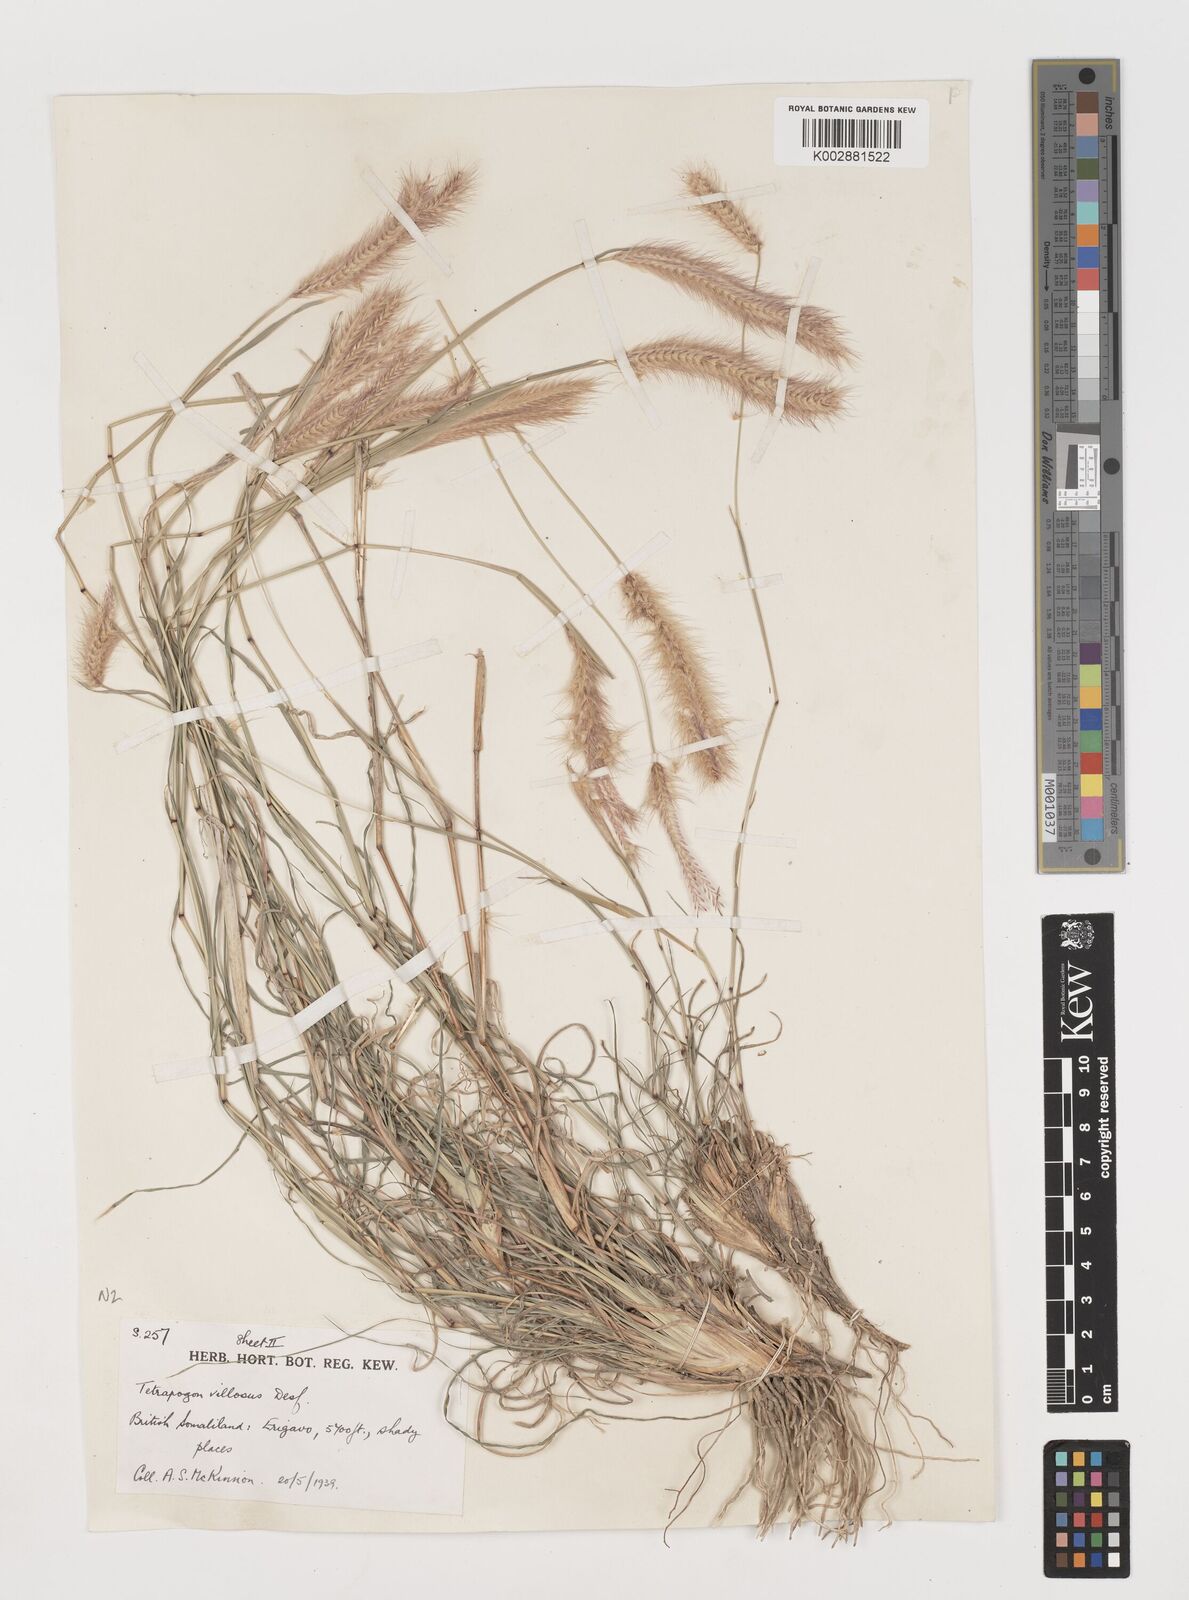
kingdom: Plantae
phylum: Tracheophyta
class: Liliopsida
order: Poales
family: Poaceae
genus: Tetrapogon
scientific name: Tetrapogon villosus
